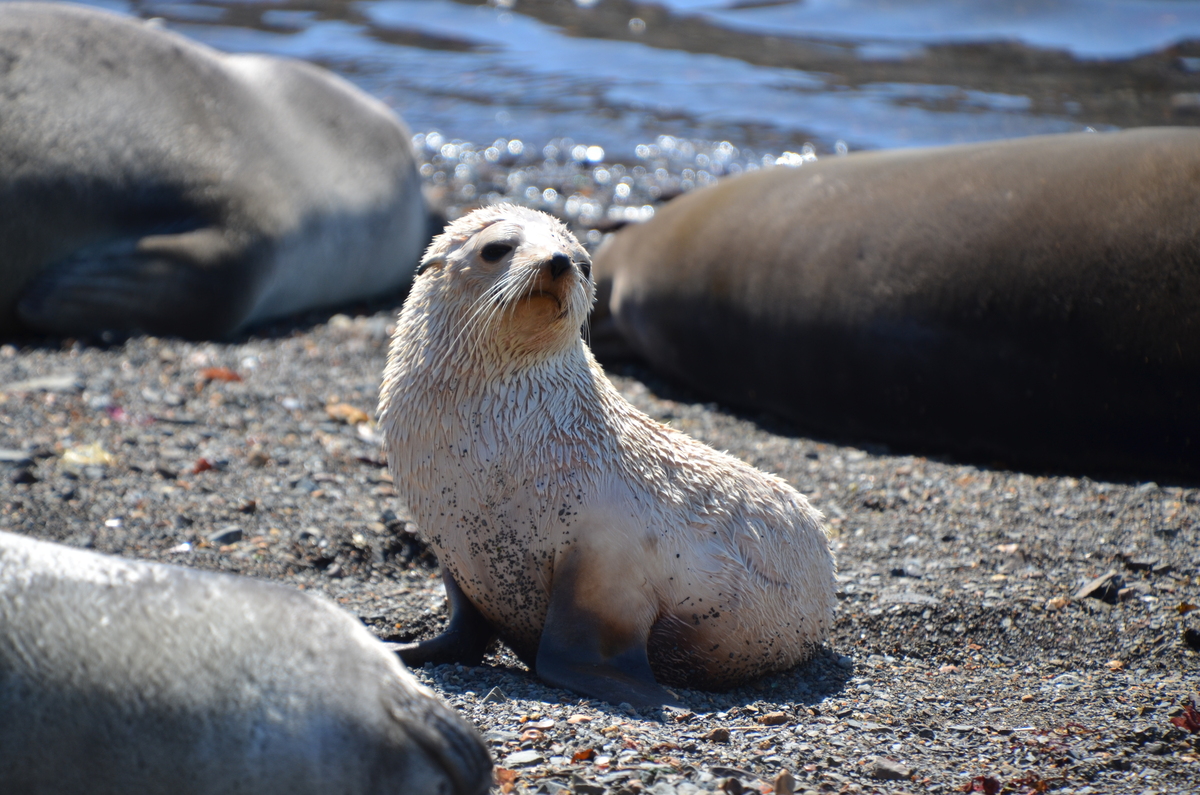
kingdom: Animalia
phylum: Chordata
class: Mammalia
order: Carnivora
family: Otariidae
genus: Arctocephalus
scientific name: Arctocephalus gazella
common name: Antarctic Fur Seal
